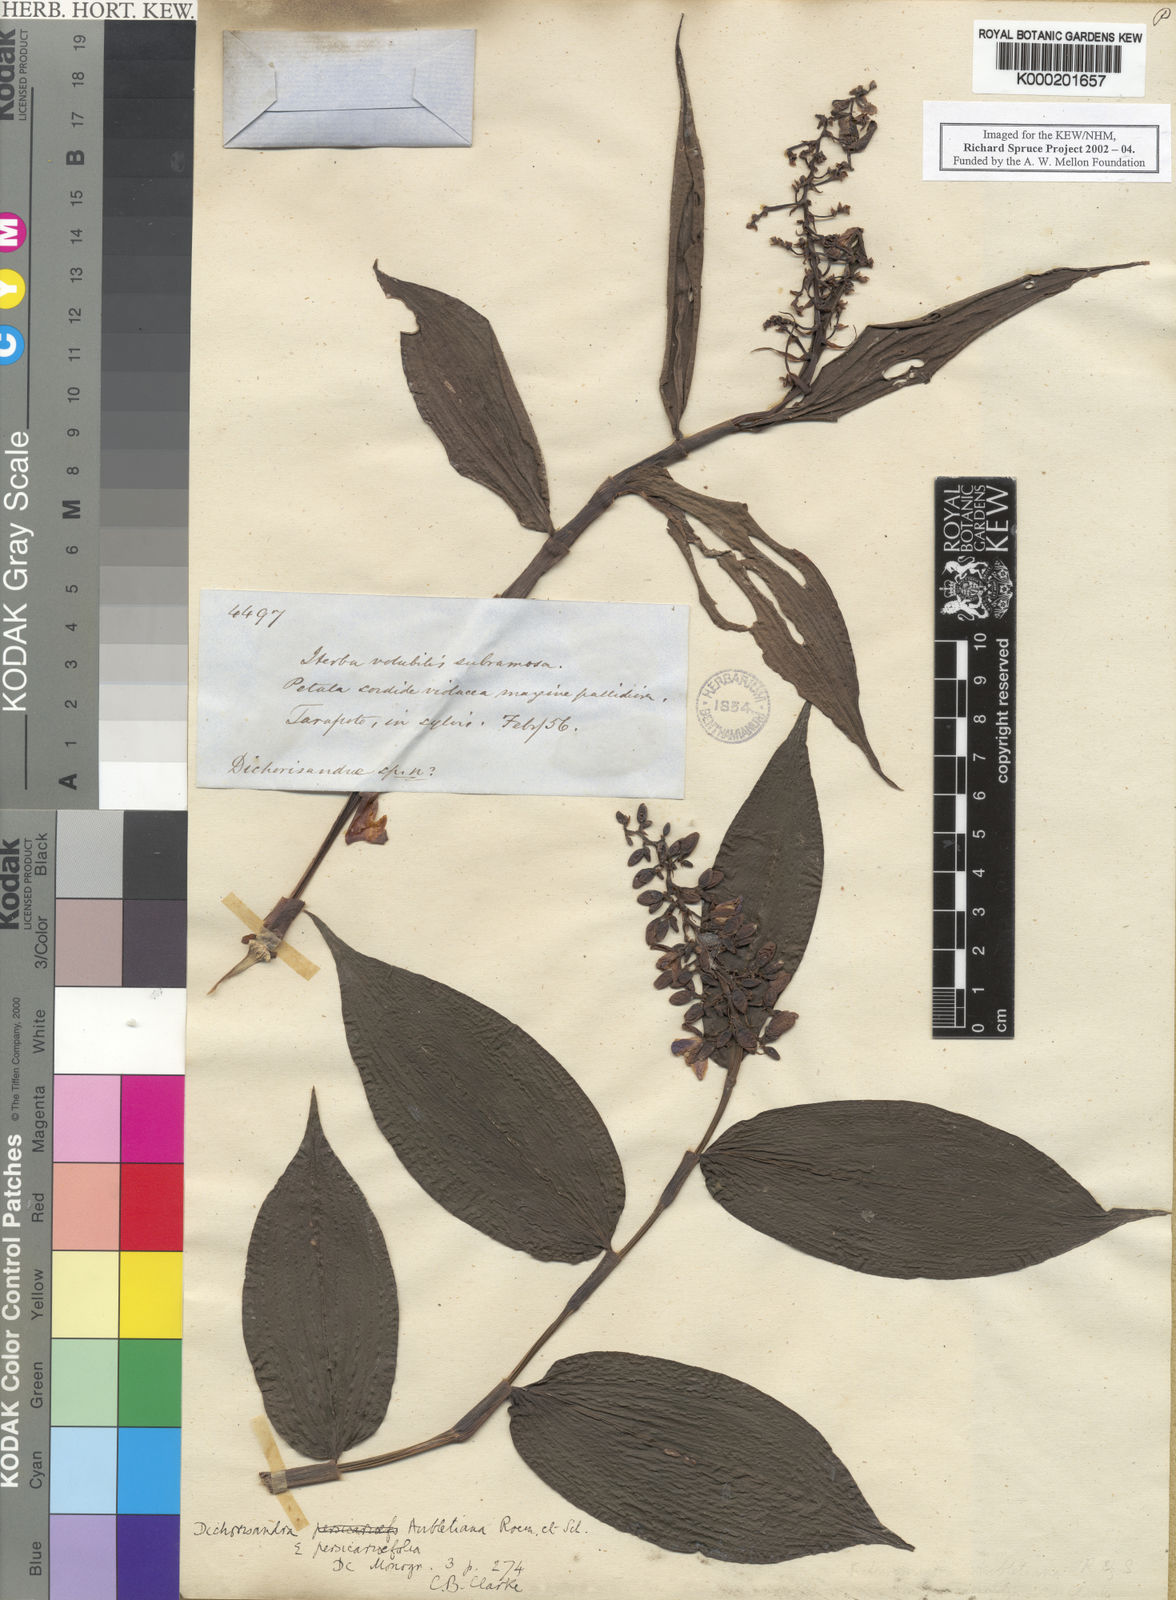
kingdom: Plantae
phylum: Tracheophyta
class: Liliopsida
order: Commelinales
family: Commelinaceae
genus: Dichorisandra
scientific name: Dichorisandra hexandra
